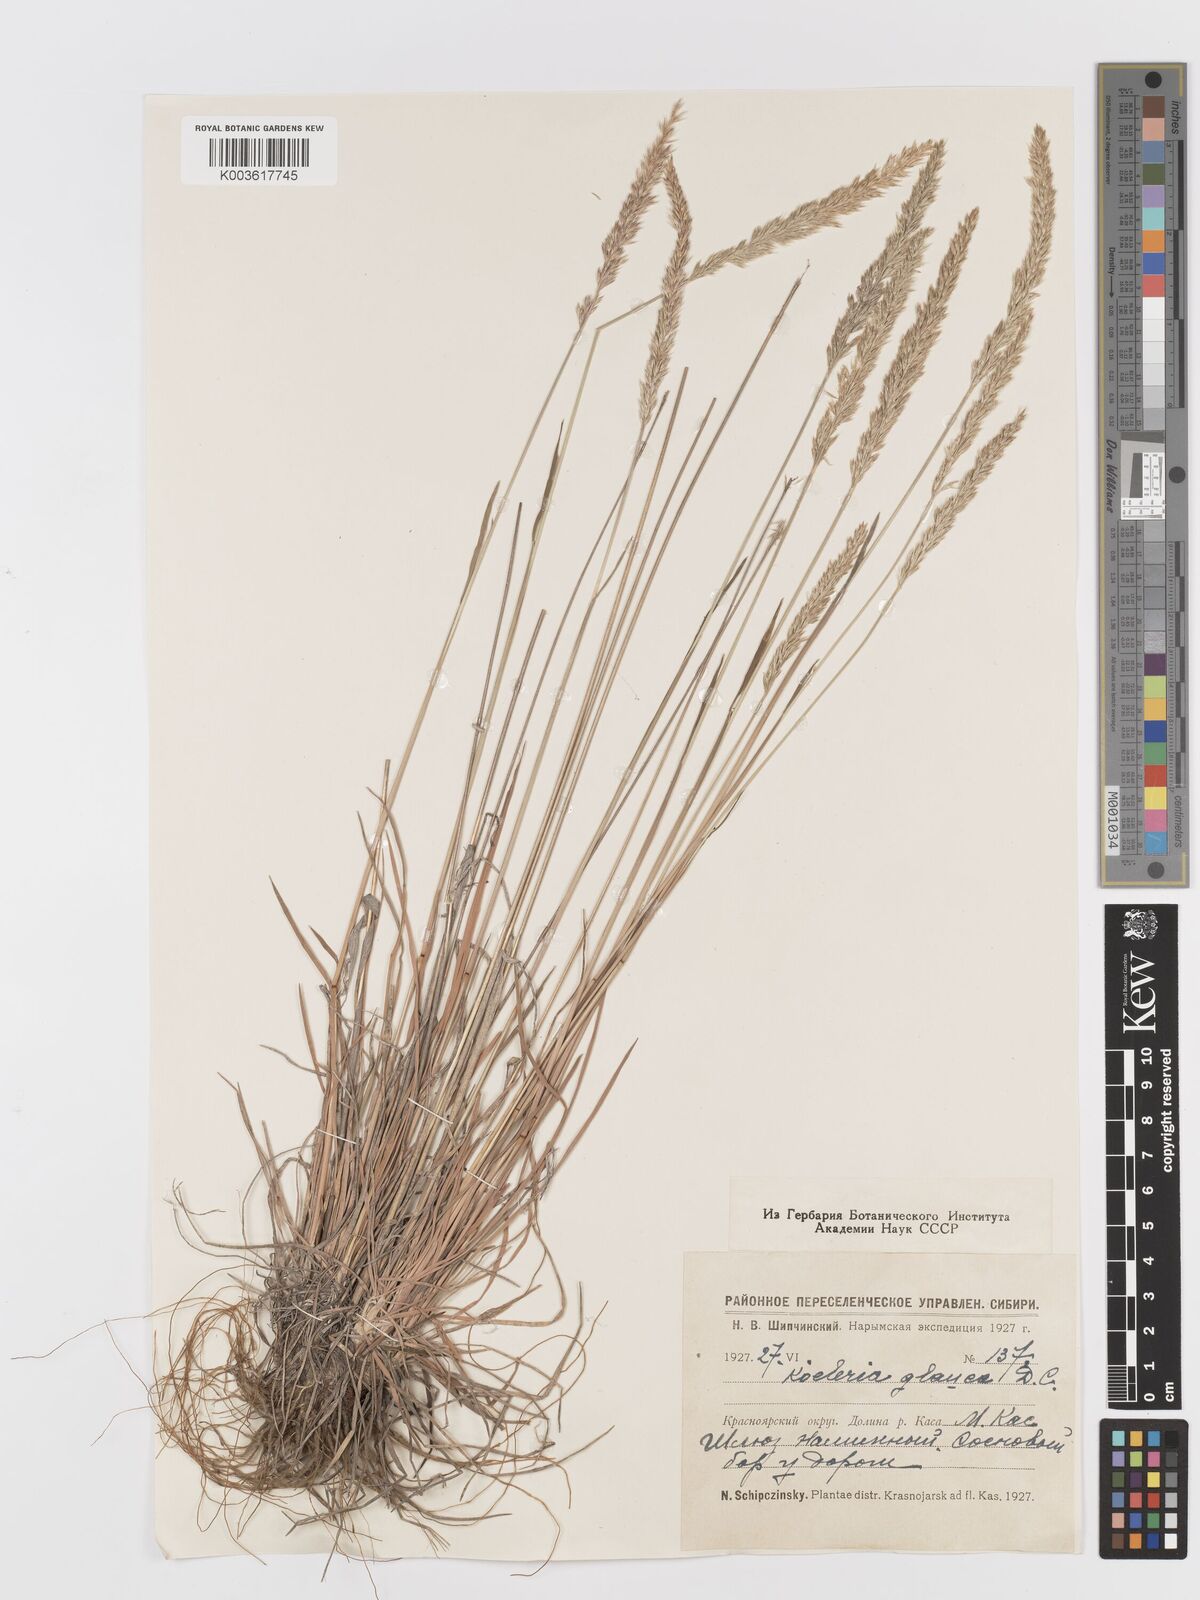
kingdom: Plantae
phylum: Tracheophyta
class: Liliopsida
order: Poales
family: Poaceae
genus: Koeleria
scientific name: Koeleria glauca
